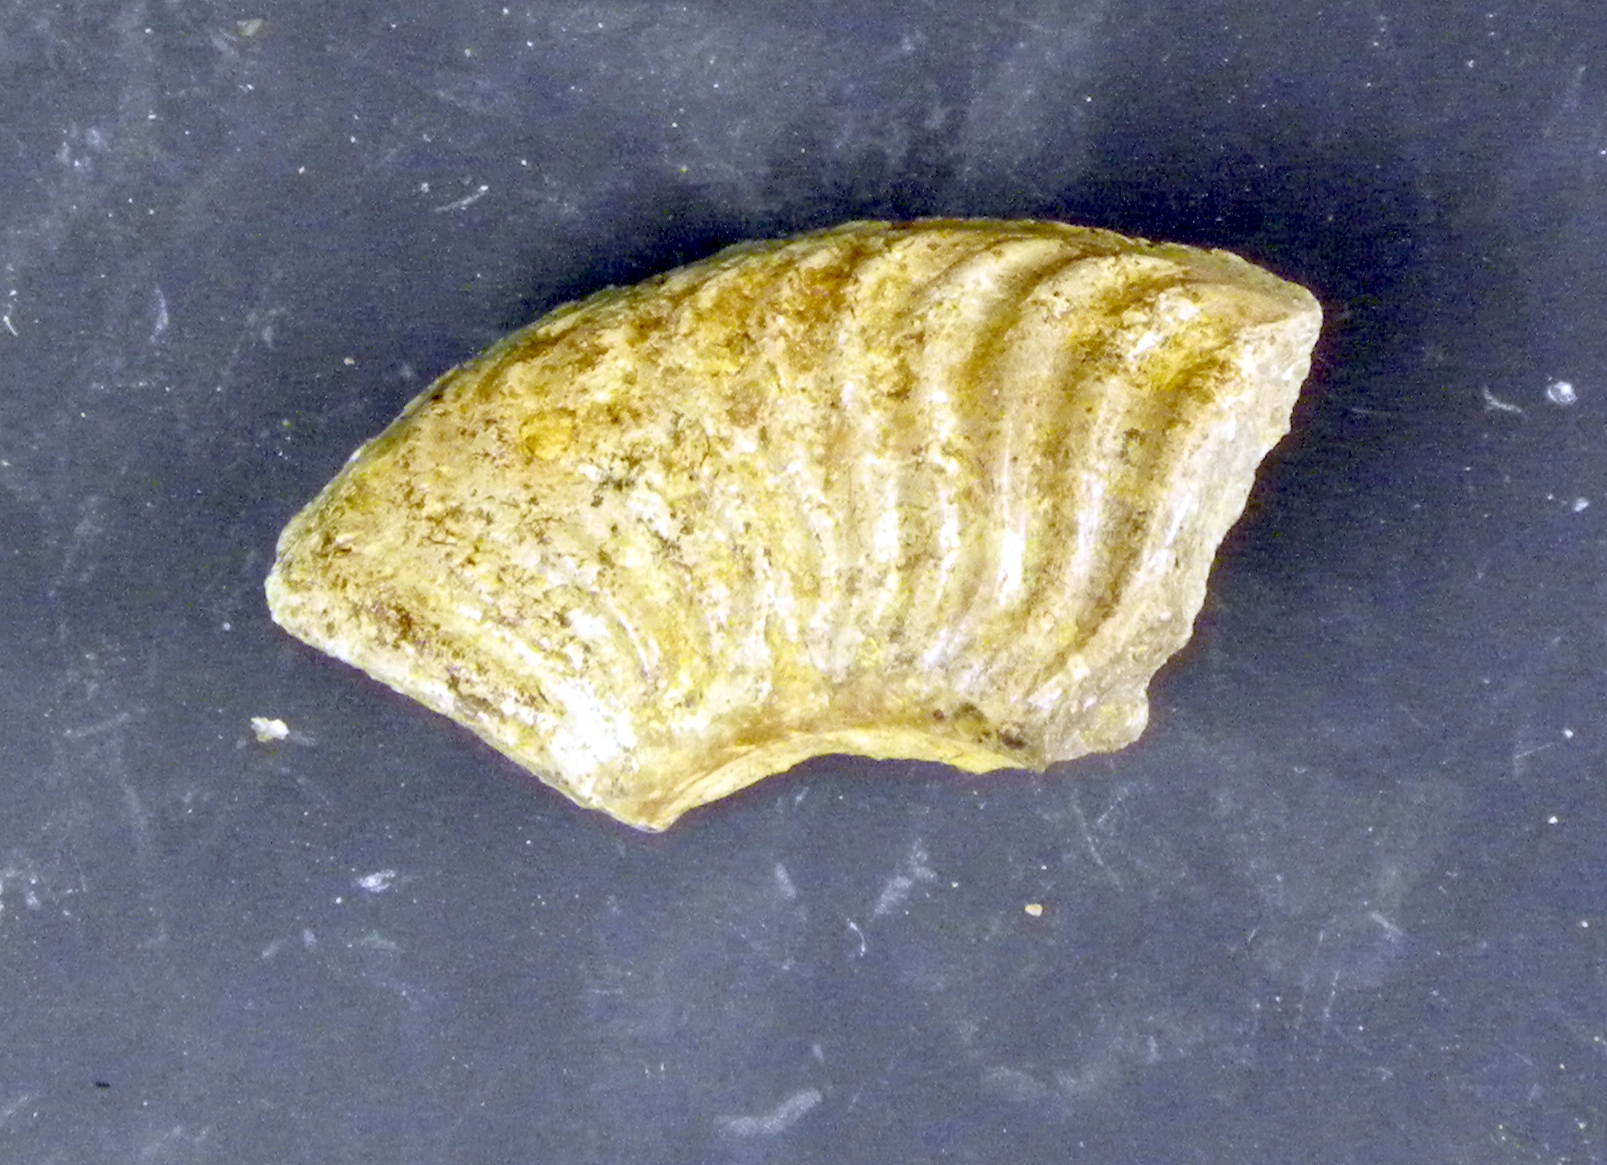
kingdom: Animalia
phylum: Mollusca
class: Cephalopoda
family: Hildoceratidae
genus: Pseudogrammoceras
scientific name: Pseudogrammoceras bingmanni
